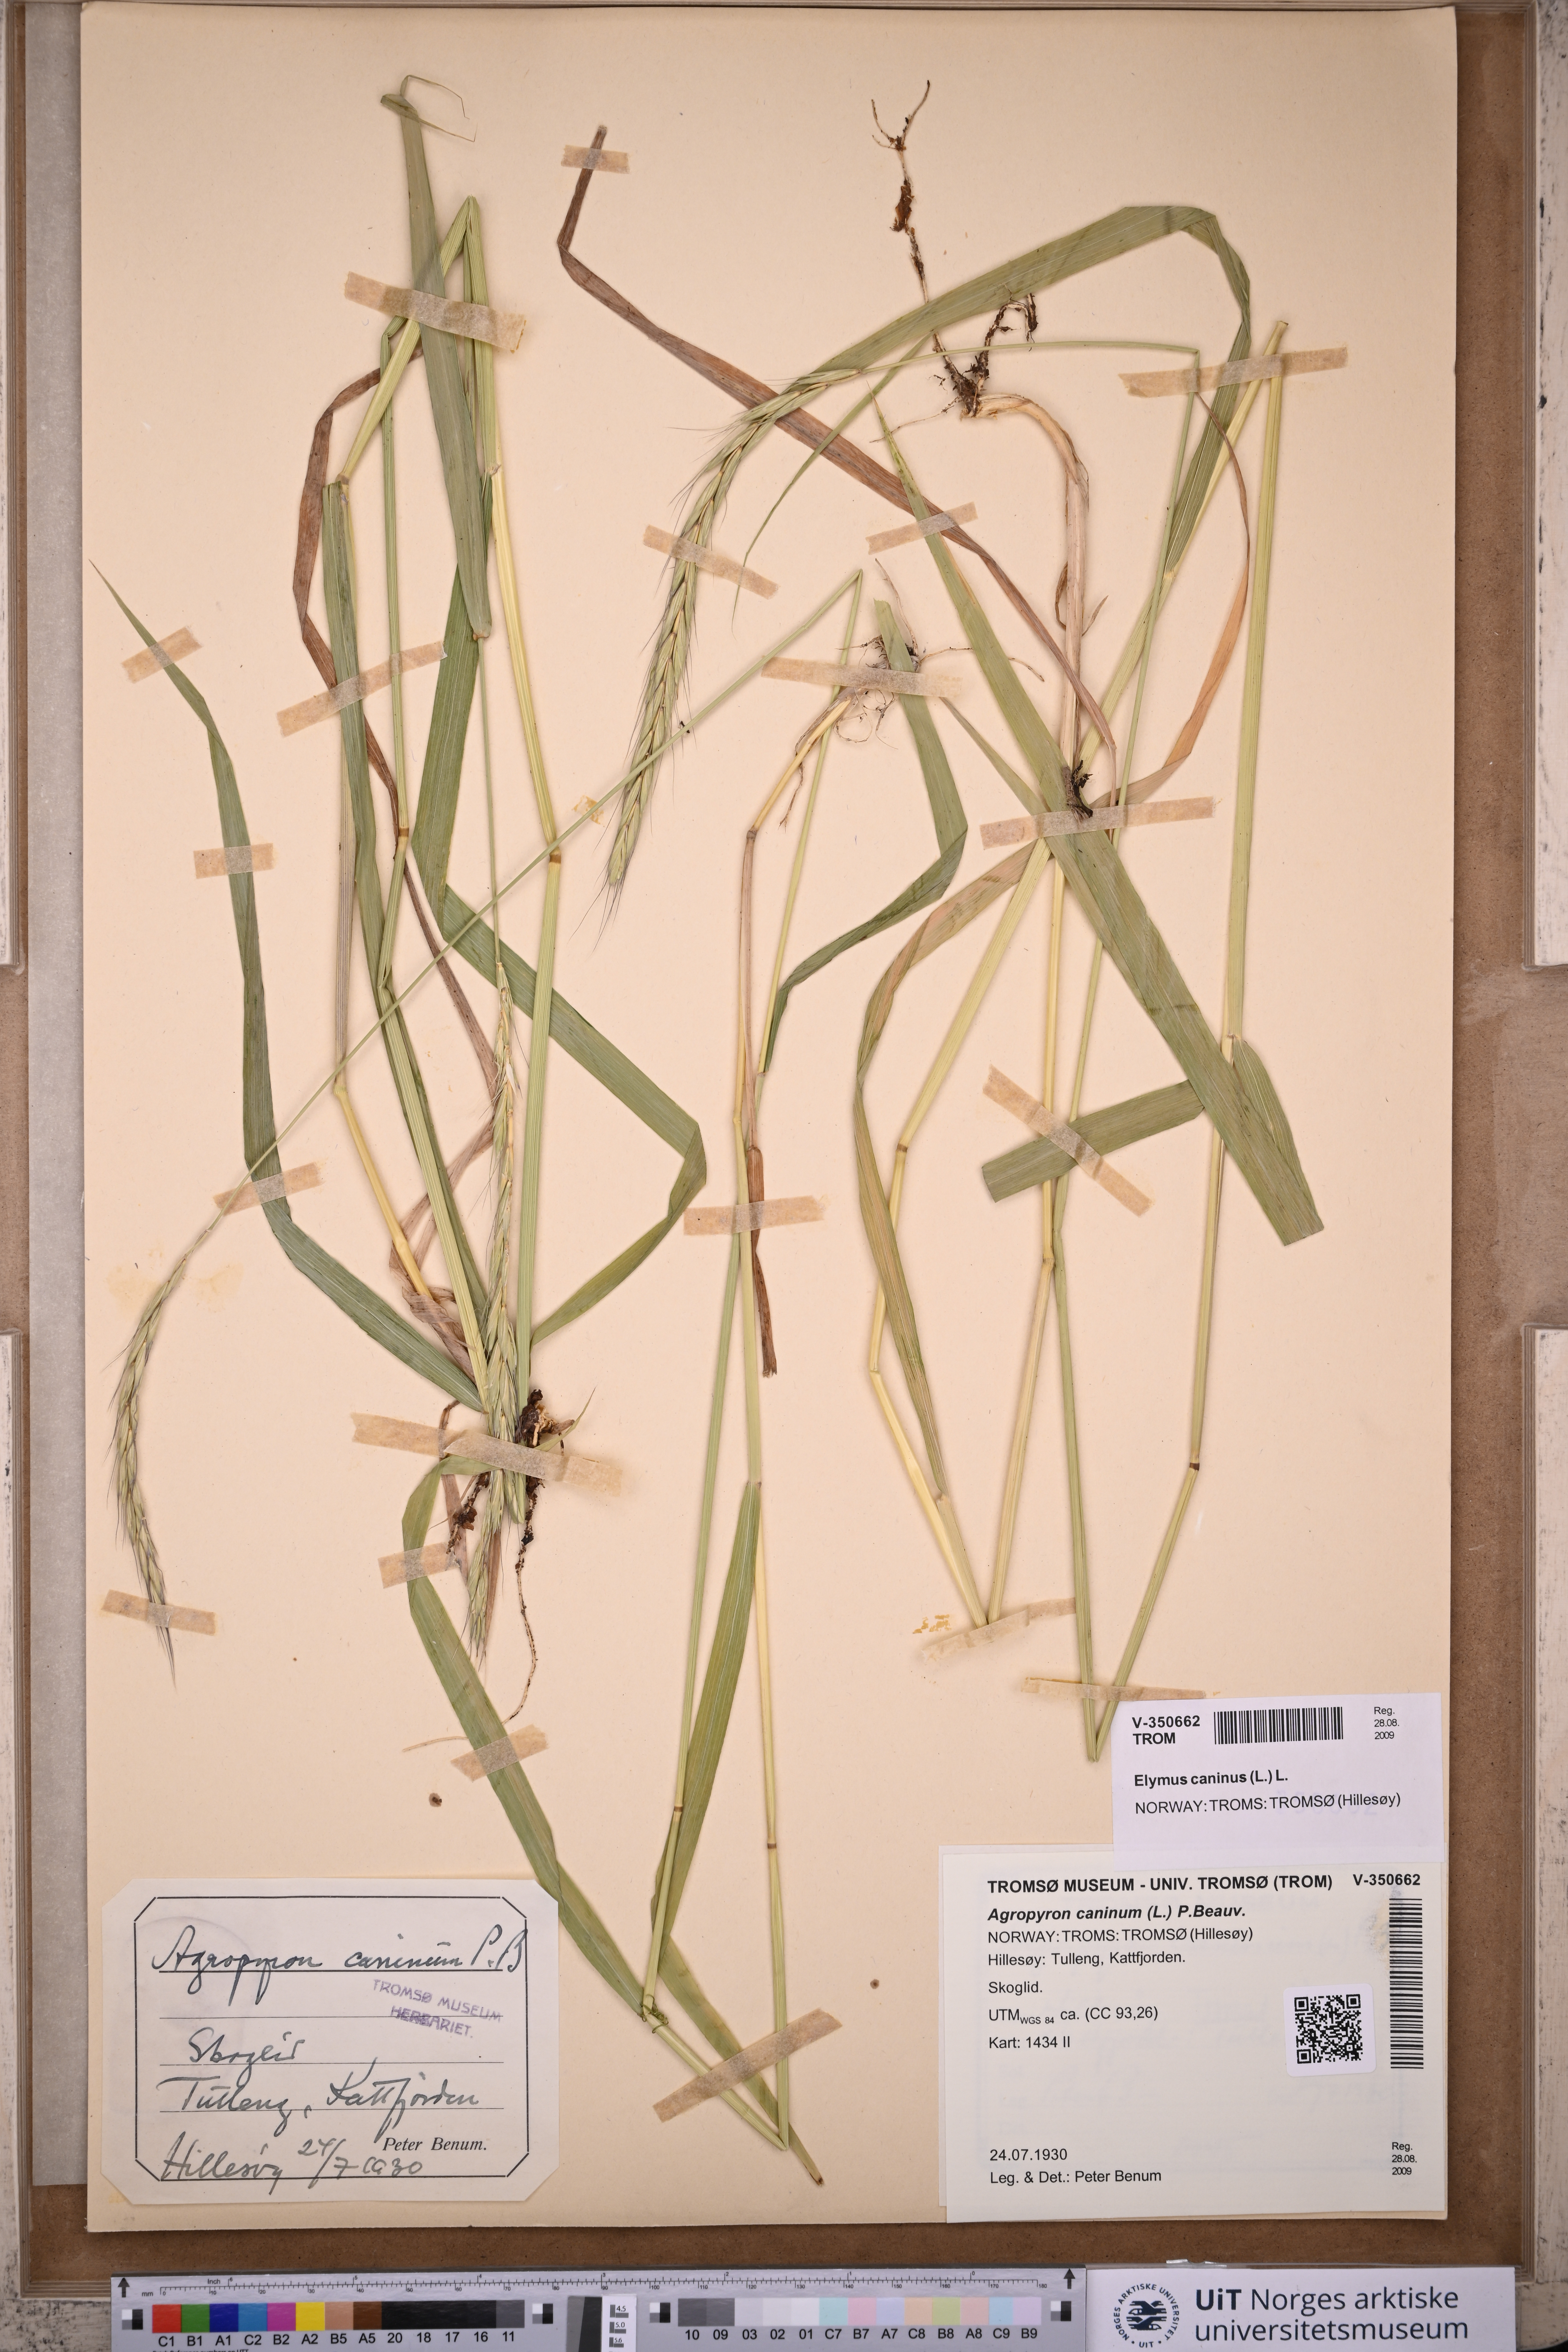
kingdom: Plantae
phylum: Tracheophyta
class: Liliopsida
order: Poales
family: Poaceae
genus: Elymus
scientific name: Elymus caninus
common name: Bearded couch
